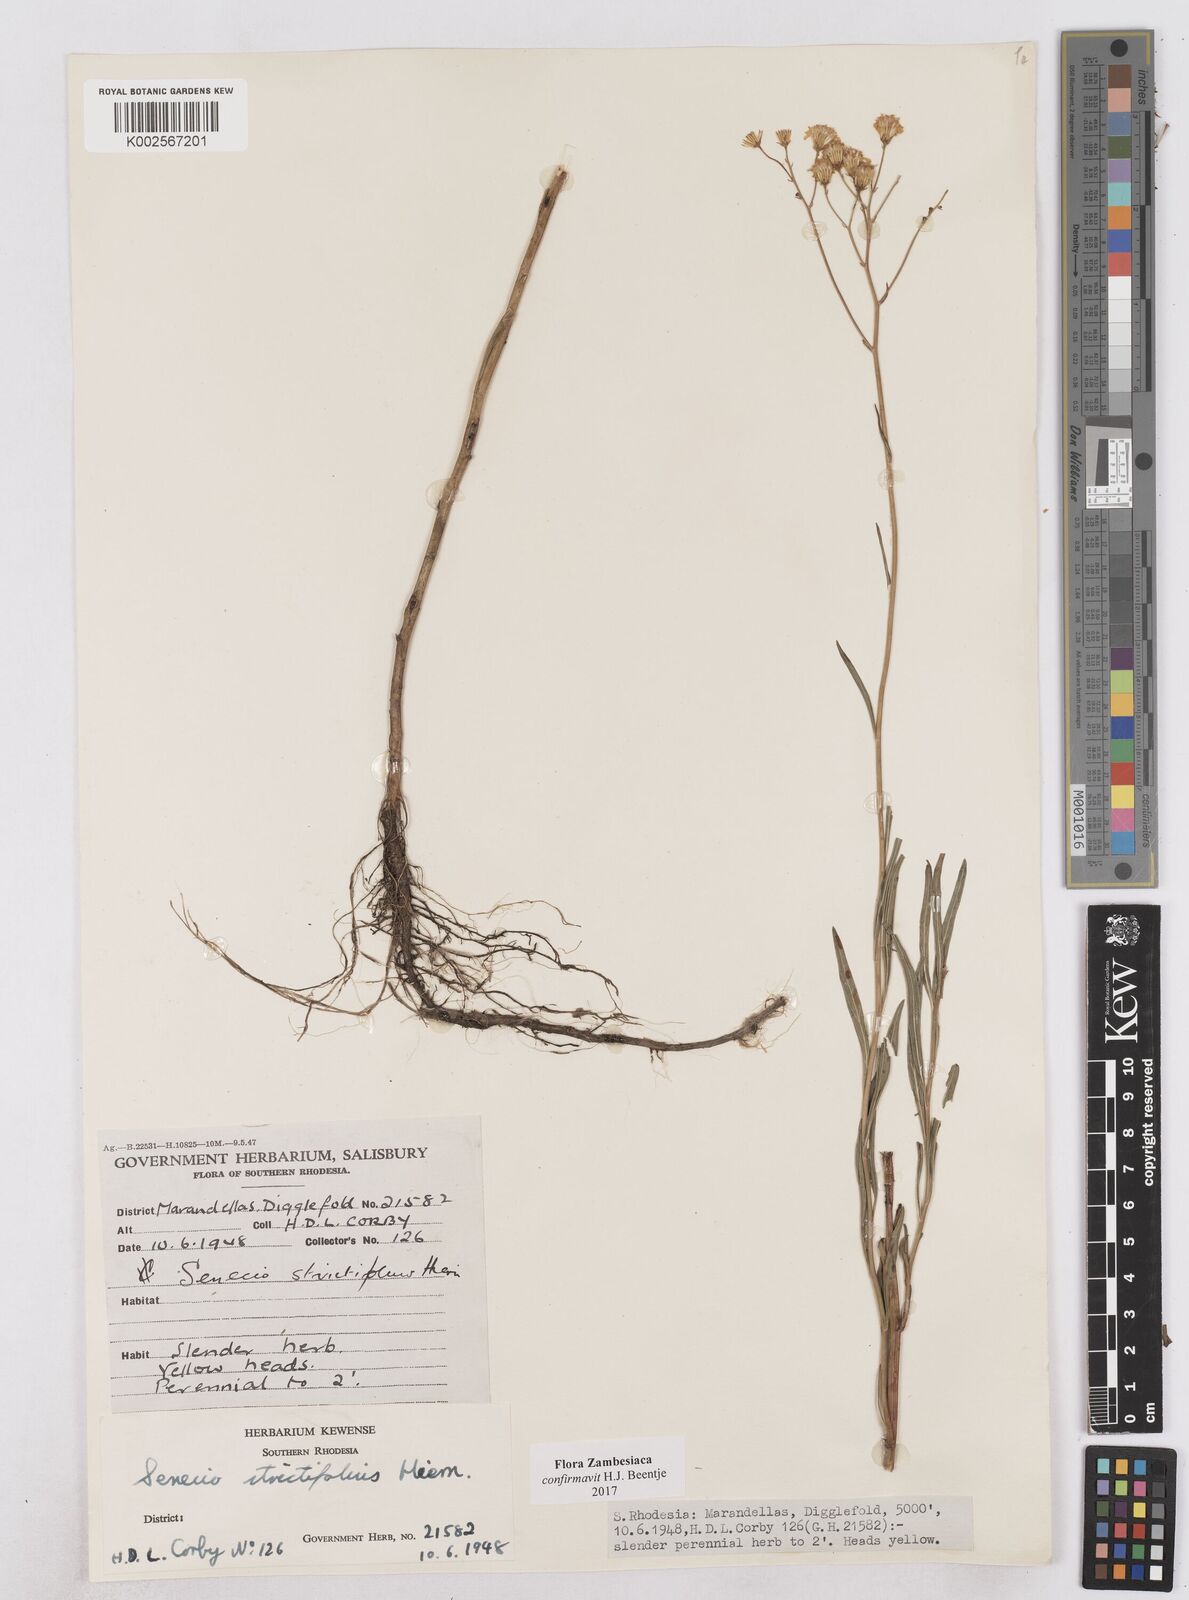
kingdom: Plantae
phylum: Tracheophyta
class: Magnoliopsida
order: Asterales
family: Asteraceae
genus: Senecio
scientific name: Senecio strictifolius
